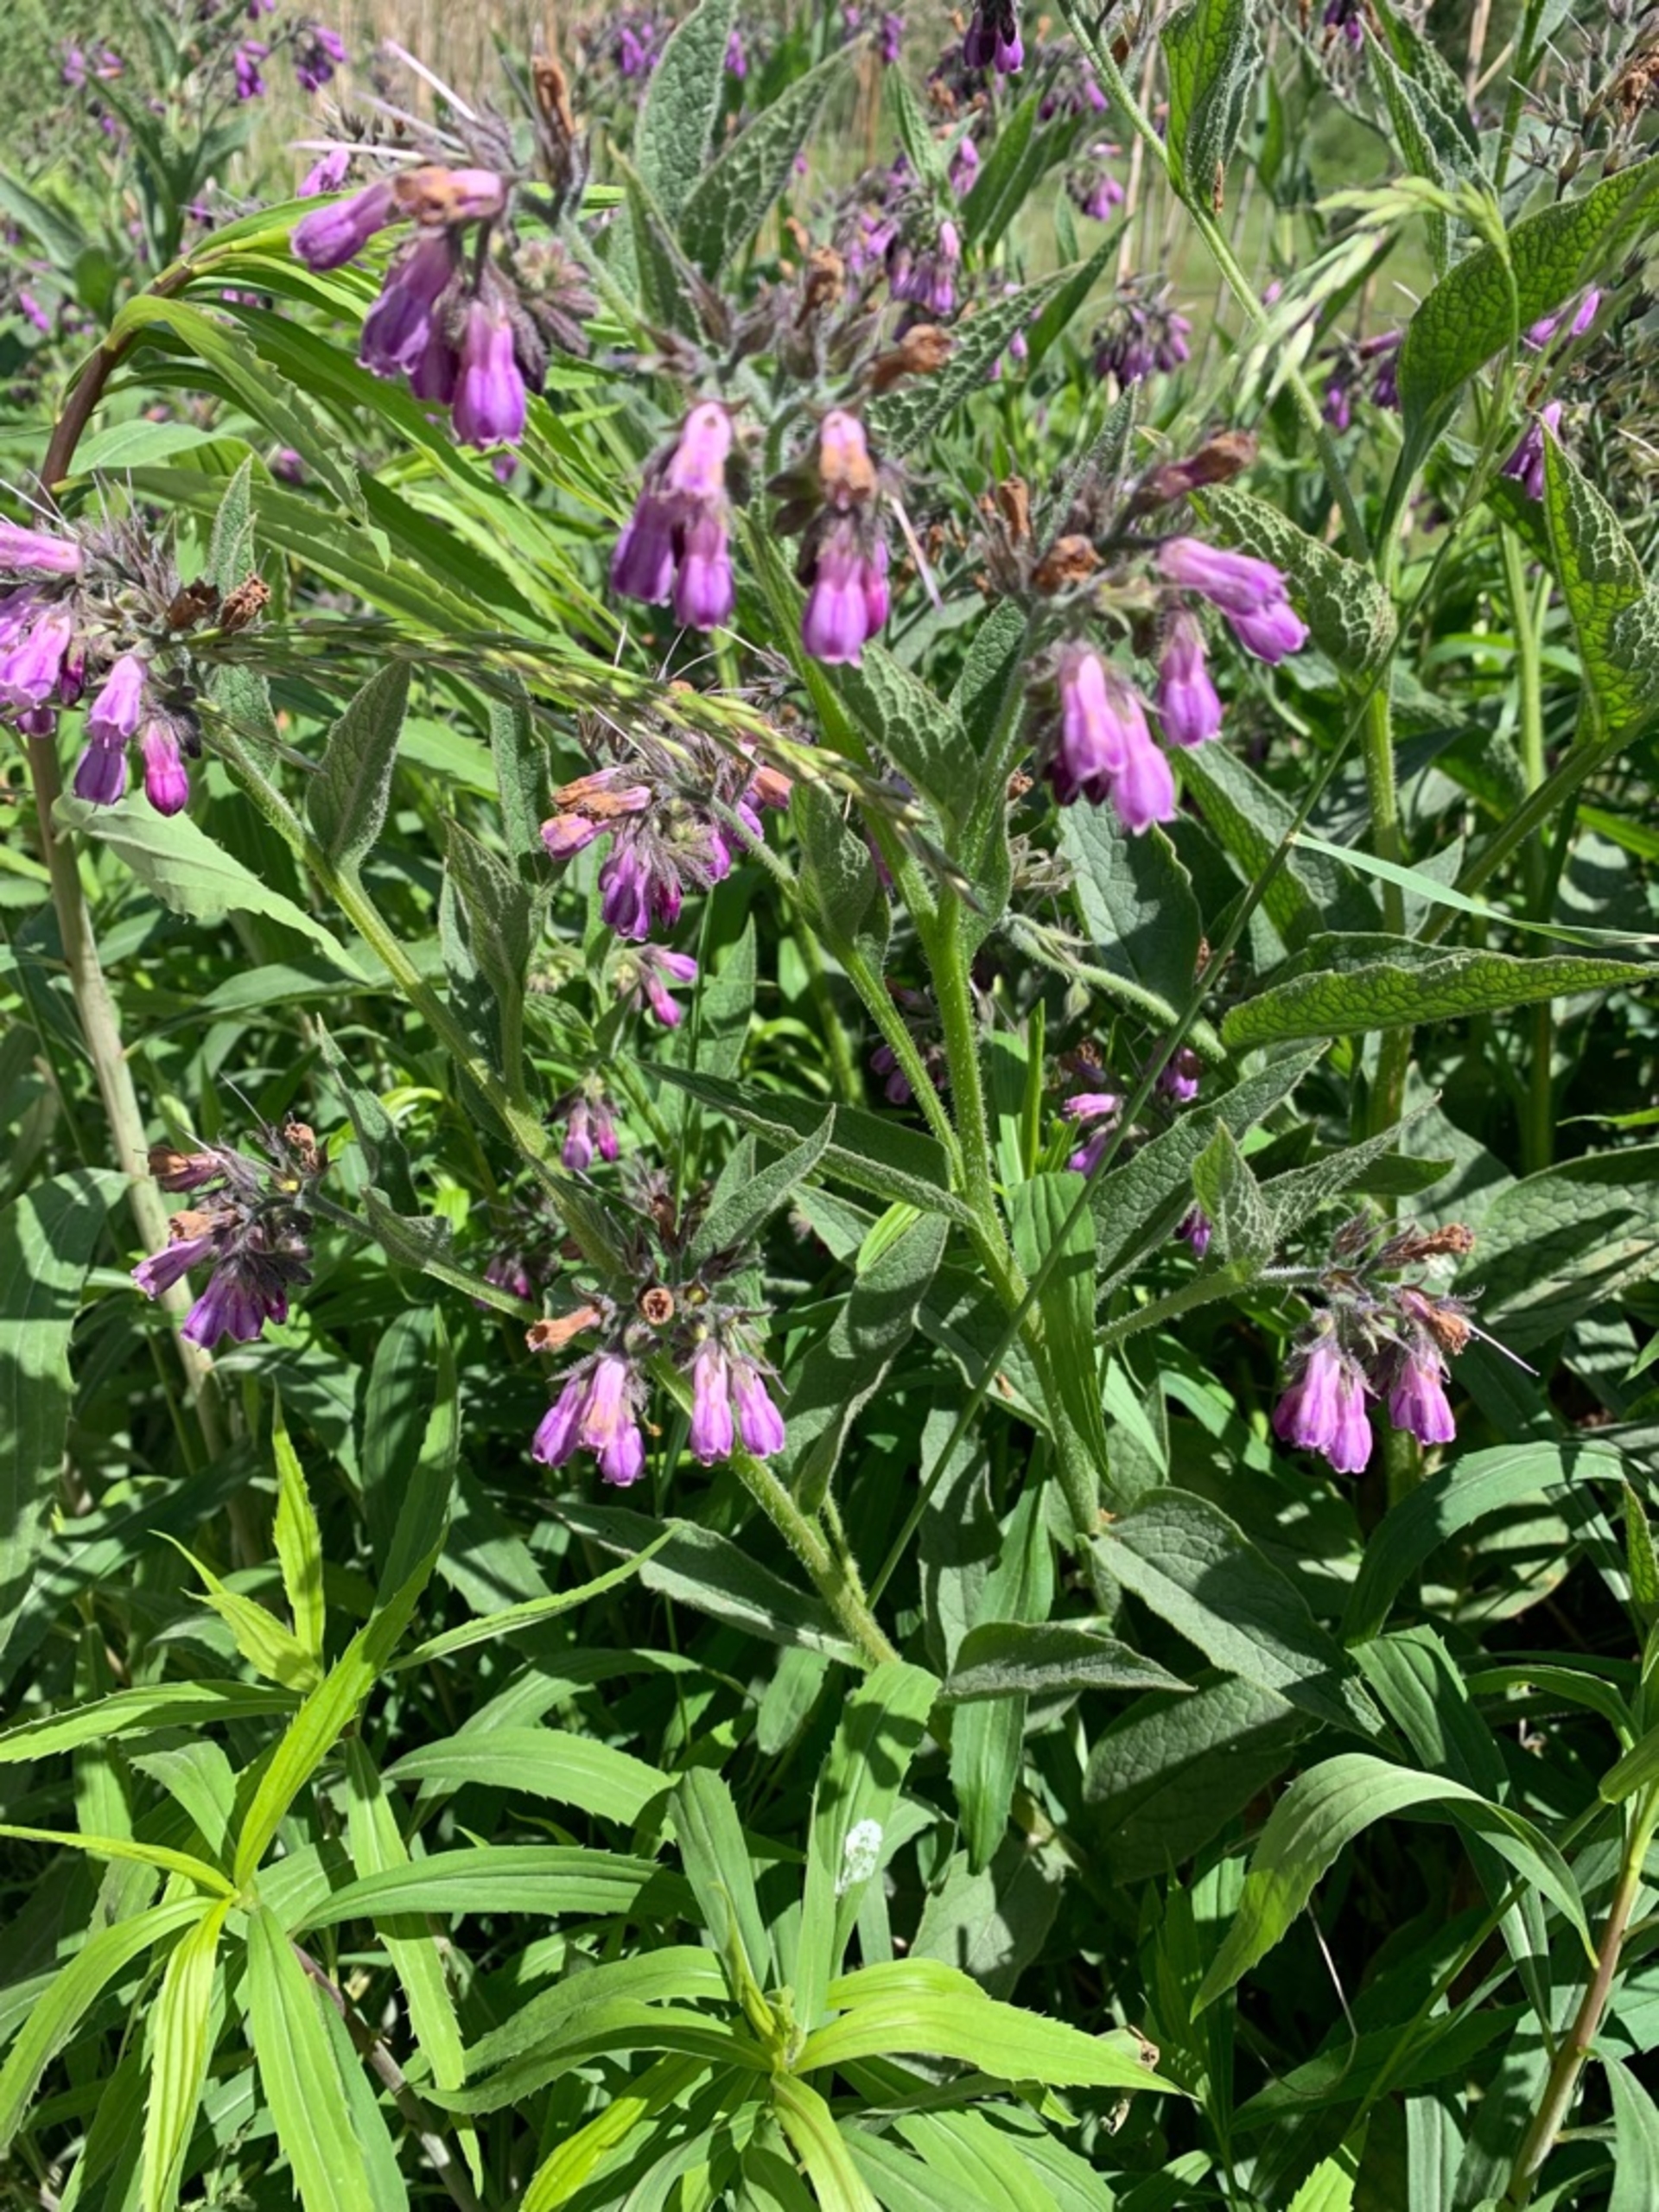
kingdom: Plantae
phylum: Tracheophyta
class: Magnoliopsida
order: Boraginales
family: Boraginaceae
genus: Symphytum
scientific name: Symphytum uplandicum
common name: Foder-kulsukker
